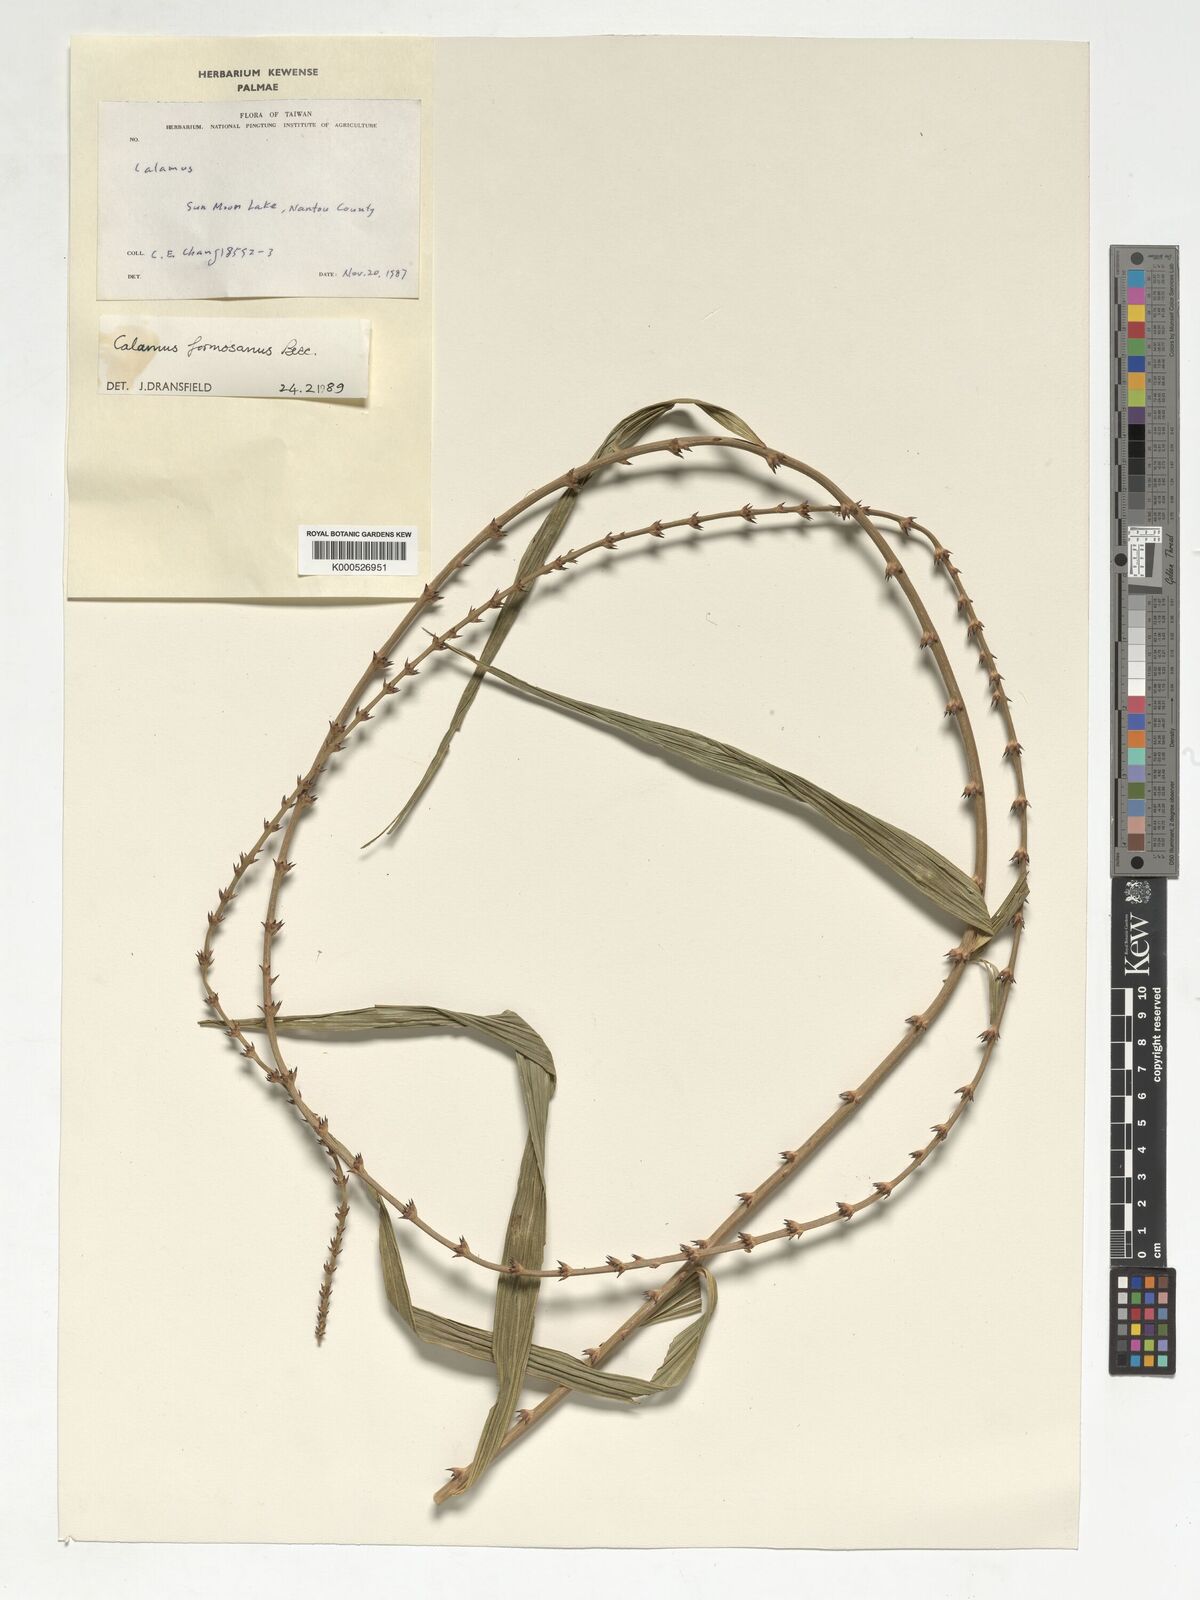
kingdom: Plantae
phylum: Tracheophyta
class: Liliopsida
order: Arecales
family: Arecaceae
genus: Calamus
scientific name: Calamus formosanus
